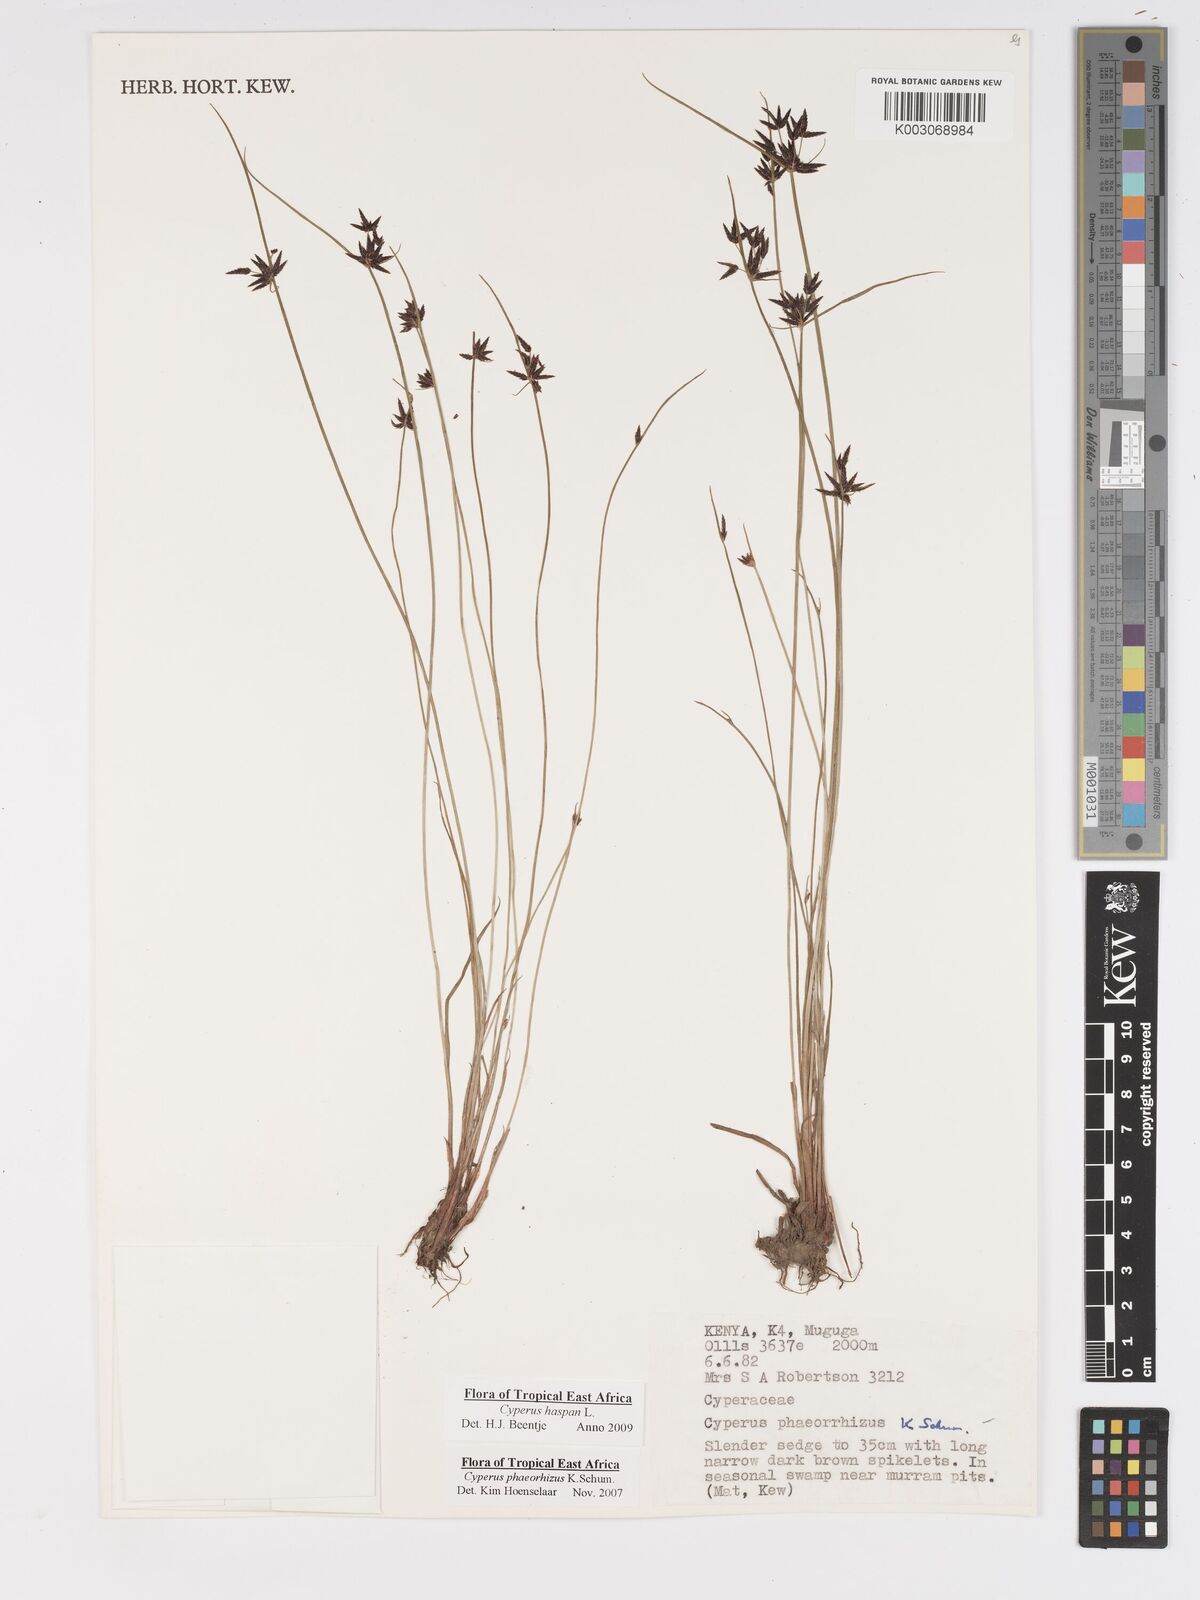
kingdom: Plantae
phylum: Tracheophyta
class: Liliopsida
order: Poales
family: Cyperaceae
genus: Cyperus
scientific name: Cyperus haspan
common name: Haspan flatsedge
